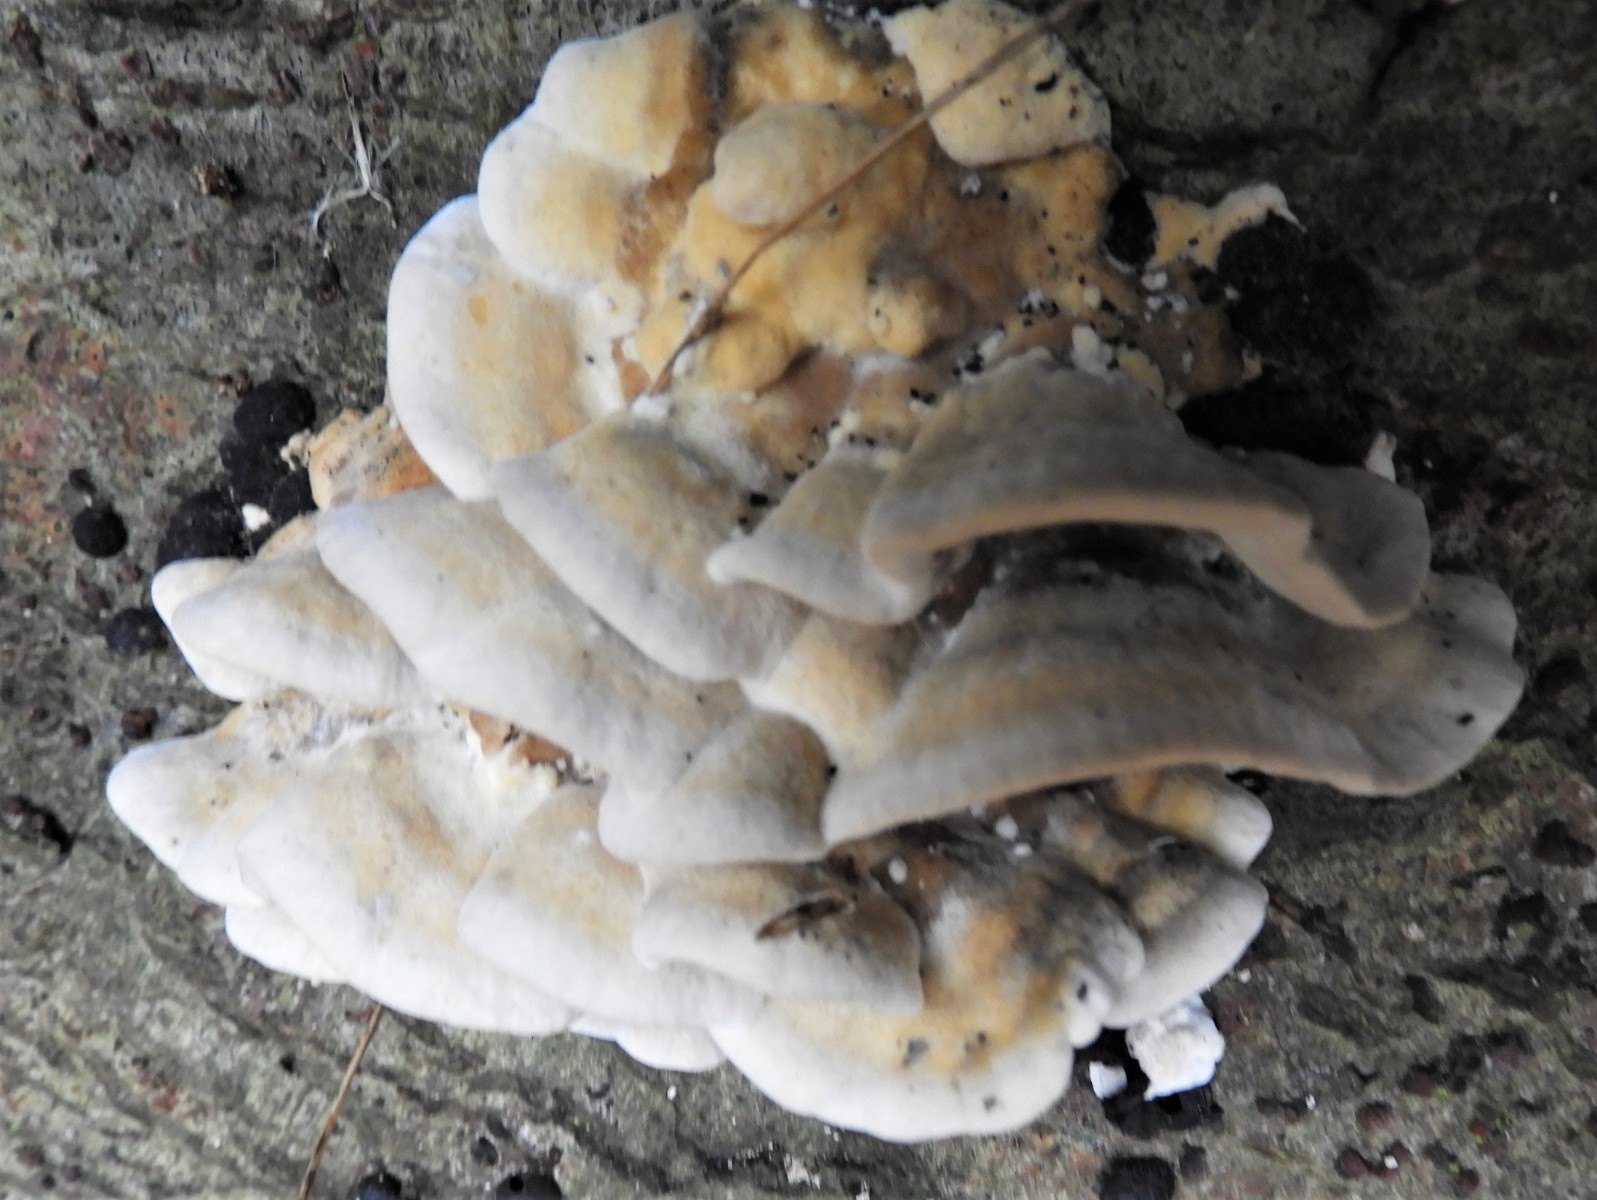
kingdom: Fungi
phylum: Basidiomycota
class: Agaricomycetes
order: Polyporales
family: Phanerochaetaceae
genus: Bjerkandera
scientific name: Bjerkandera adusta
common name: sveden sodporesvamp
